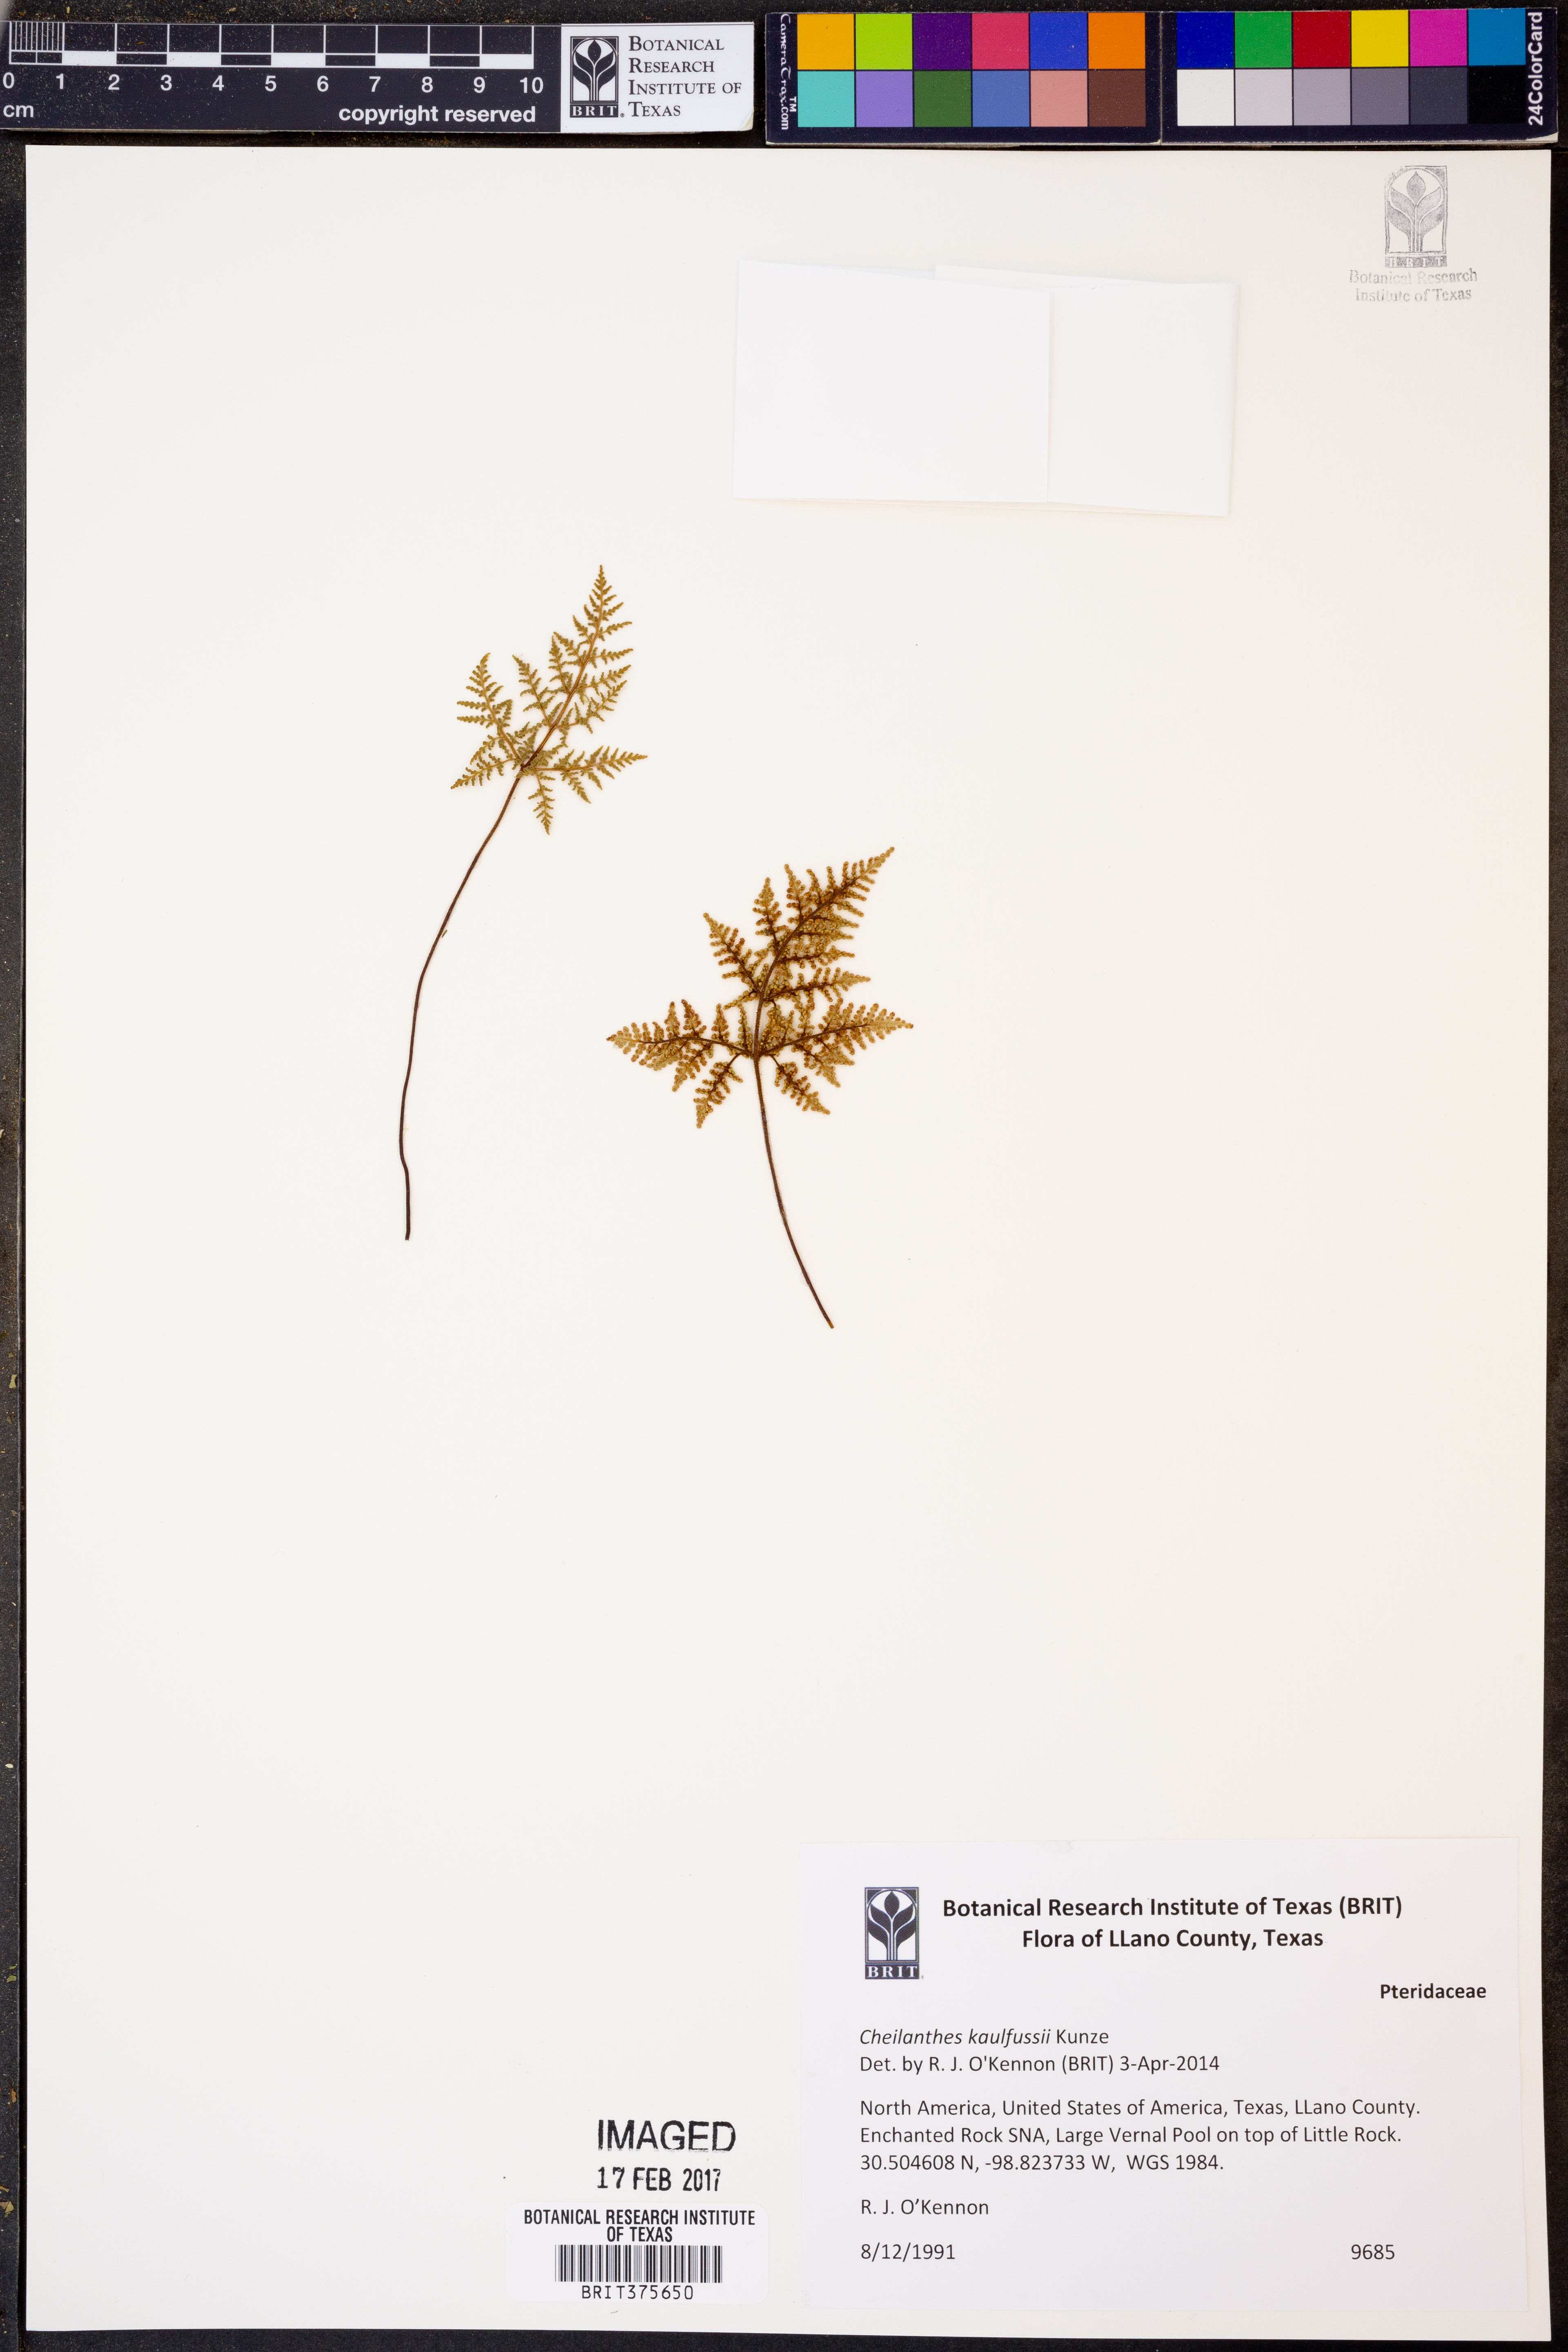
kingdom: Plantae
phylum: Tracheophyta
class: Polypodiopsida
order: Polypodiales
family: Pteridaceae
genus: Gaga
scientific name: Gaga kaulfussii
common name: Glandular lip fern
